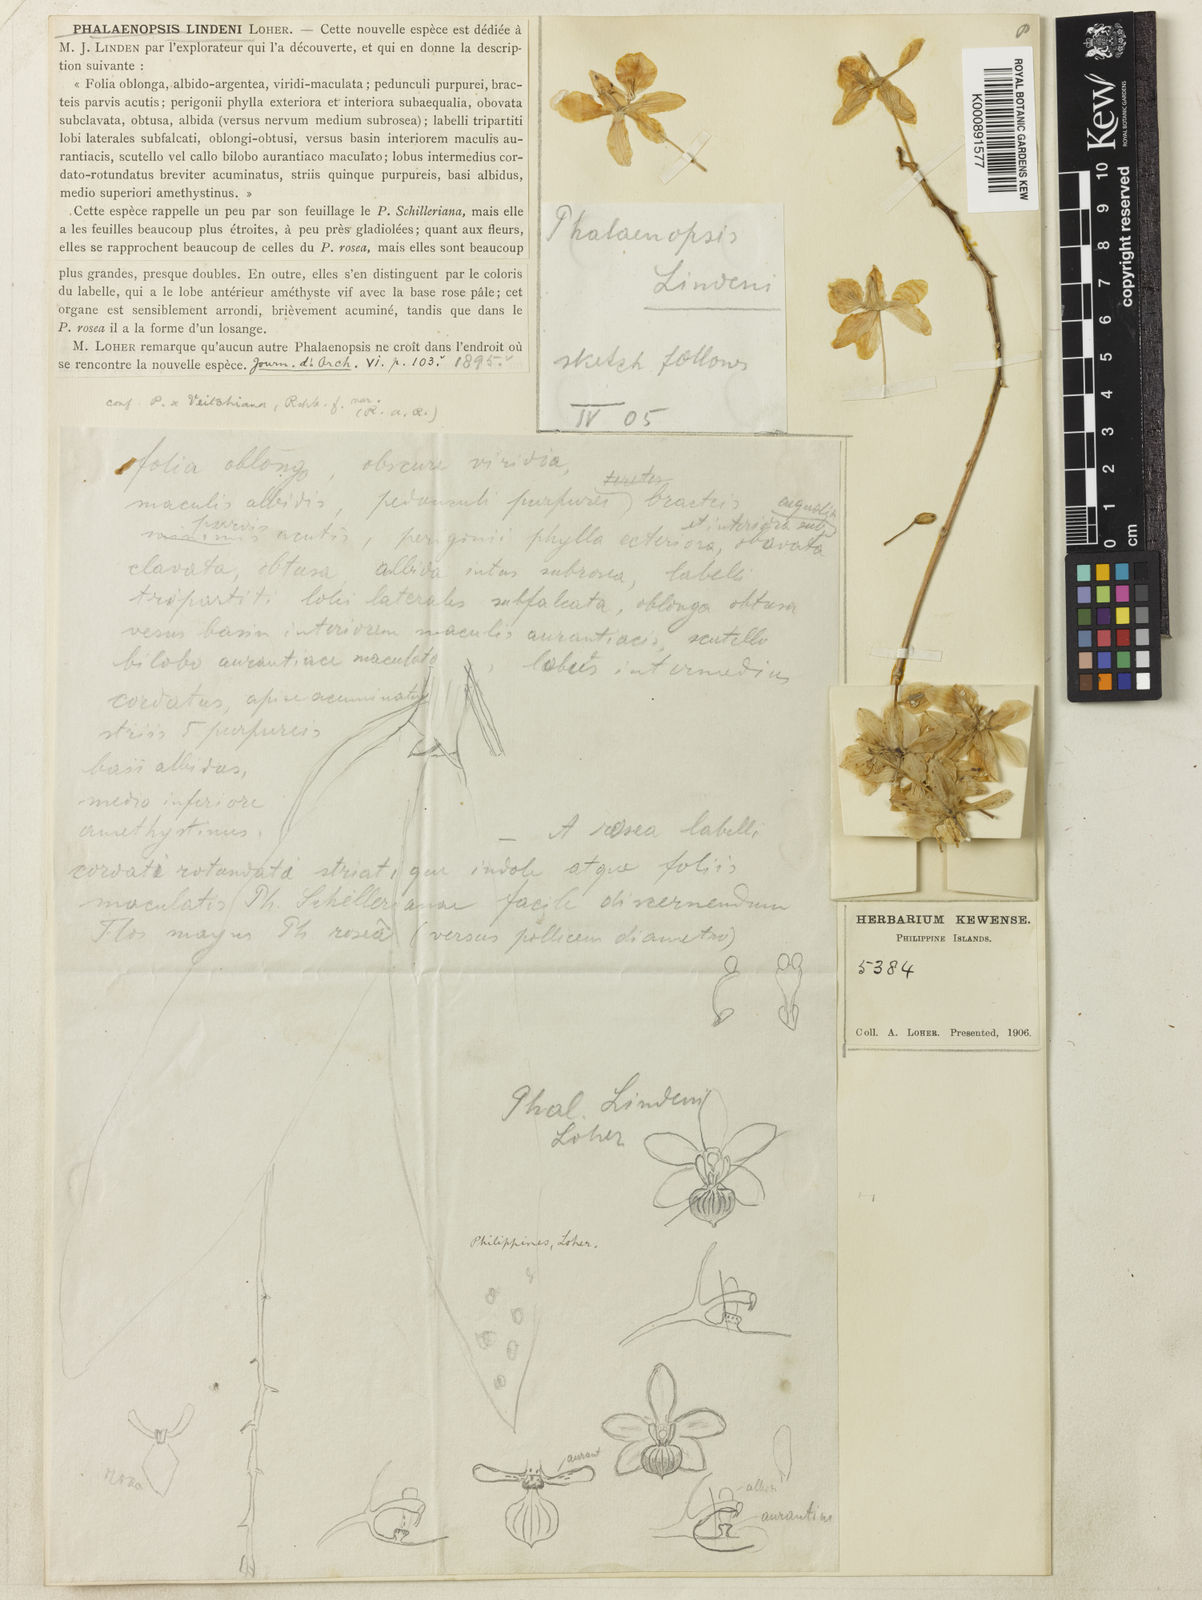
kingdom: Plantae
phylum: Tracheophyta
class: Liliopsida
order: Asparagales
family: Orchidaceae
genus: Phalaenopsis
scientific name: Phalaenopsis lindenii
